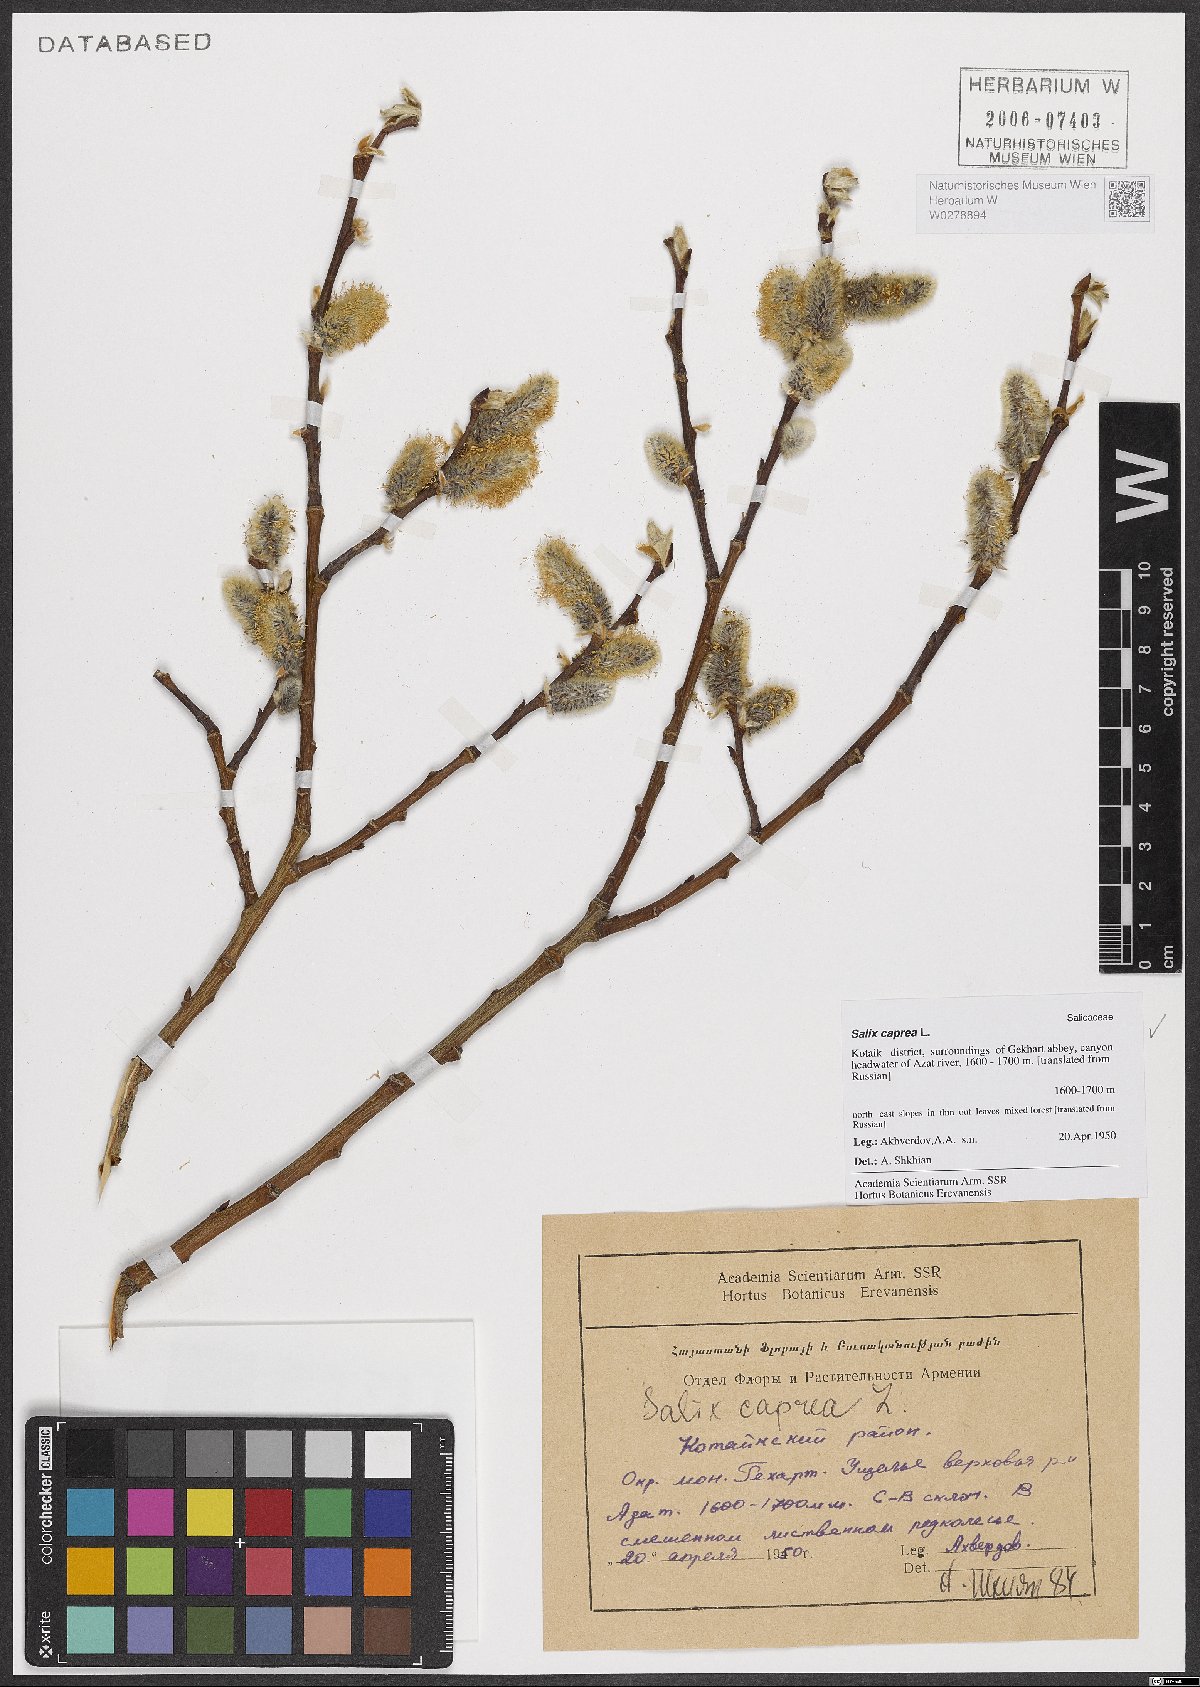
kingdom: Plantae
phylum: Tracheophyta
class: Magnoliopsida
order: Malpighiales
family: Salicaceae
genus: Salix
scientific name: Salix caprea
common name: Goat willow
